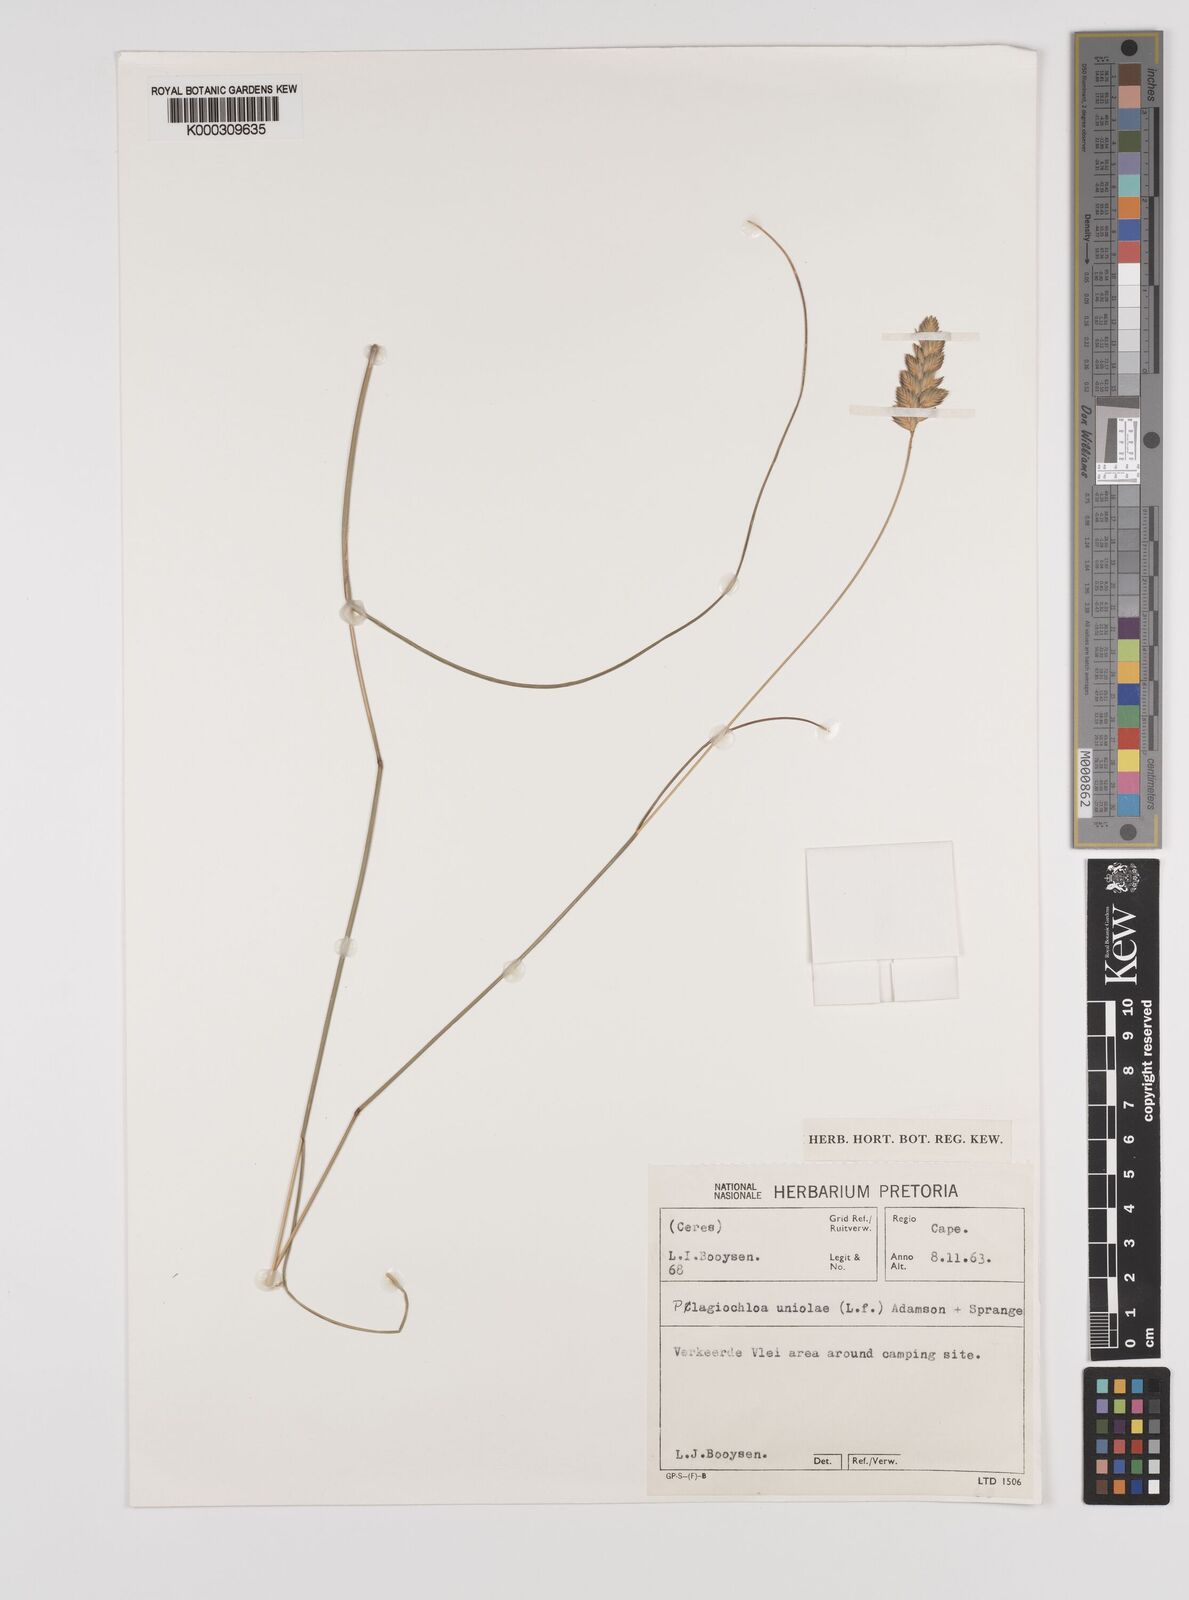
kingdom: Plantae
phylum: Tracheophyta
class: Liliopsida
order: Poales
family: Poaceae
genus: Tribolium
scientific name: Tribolium uniolae
